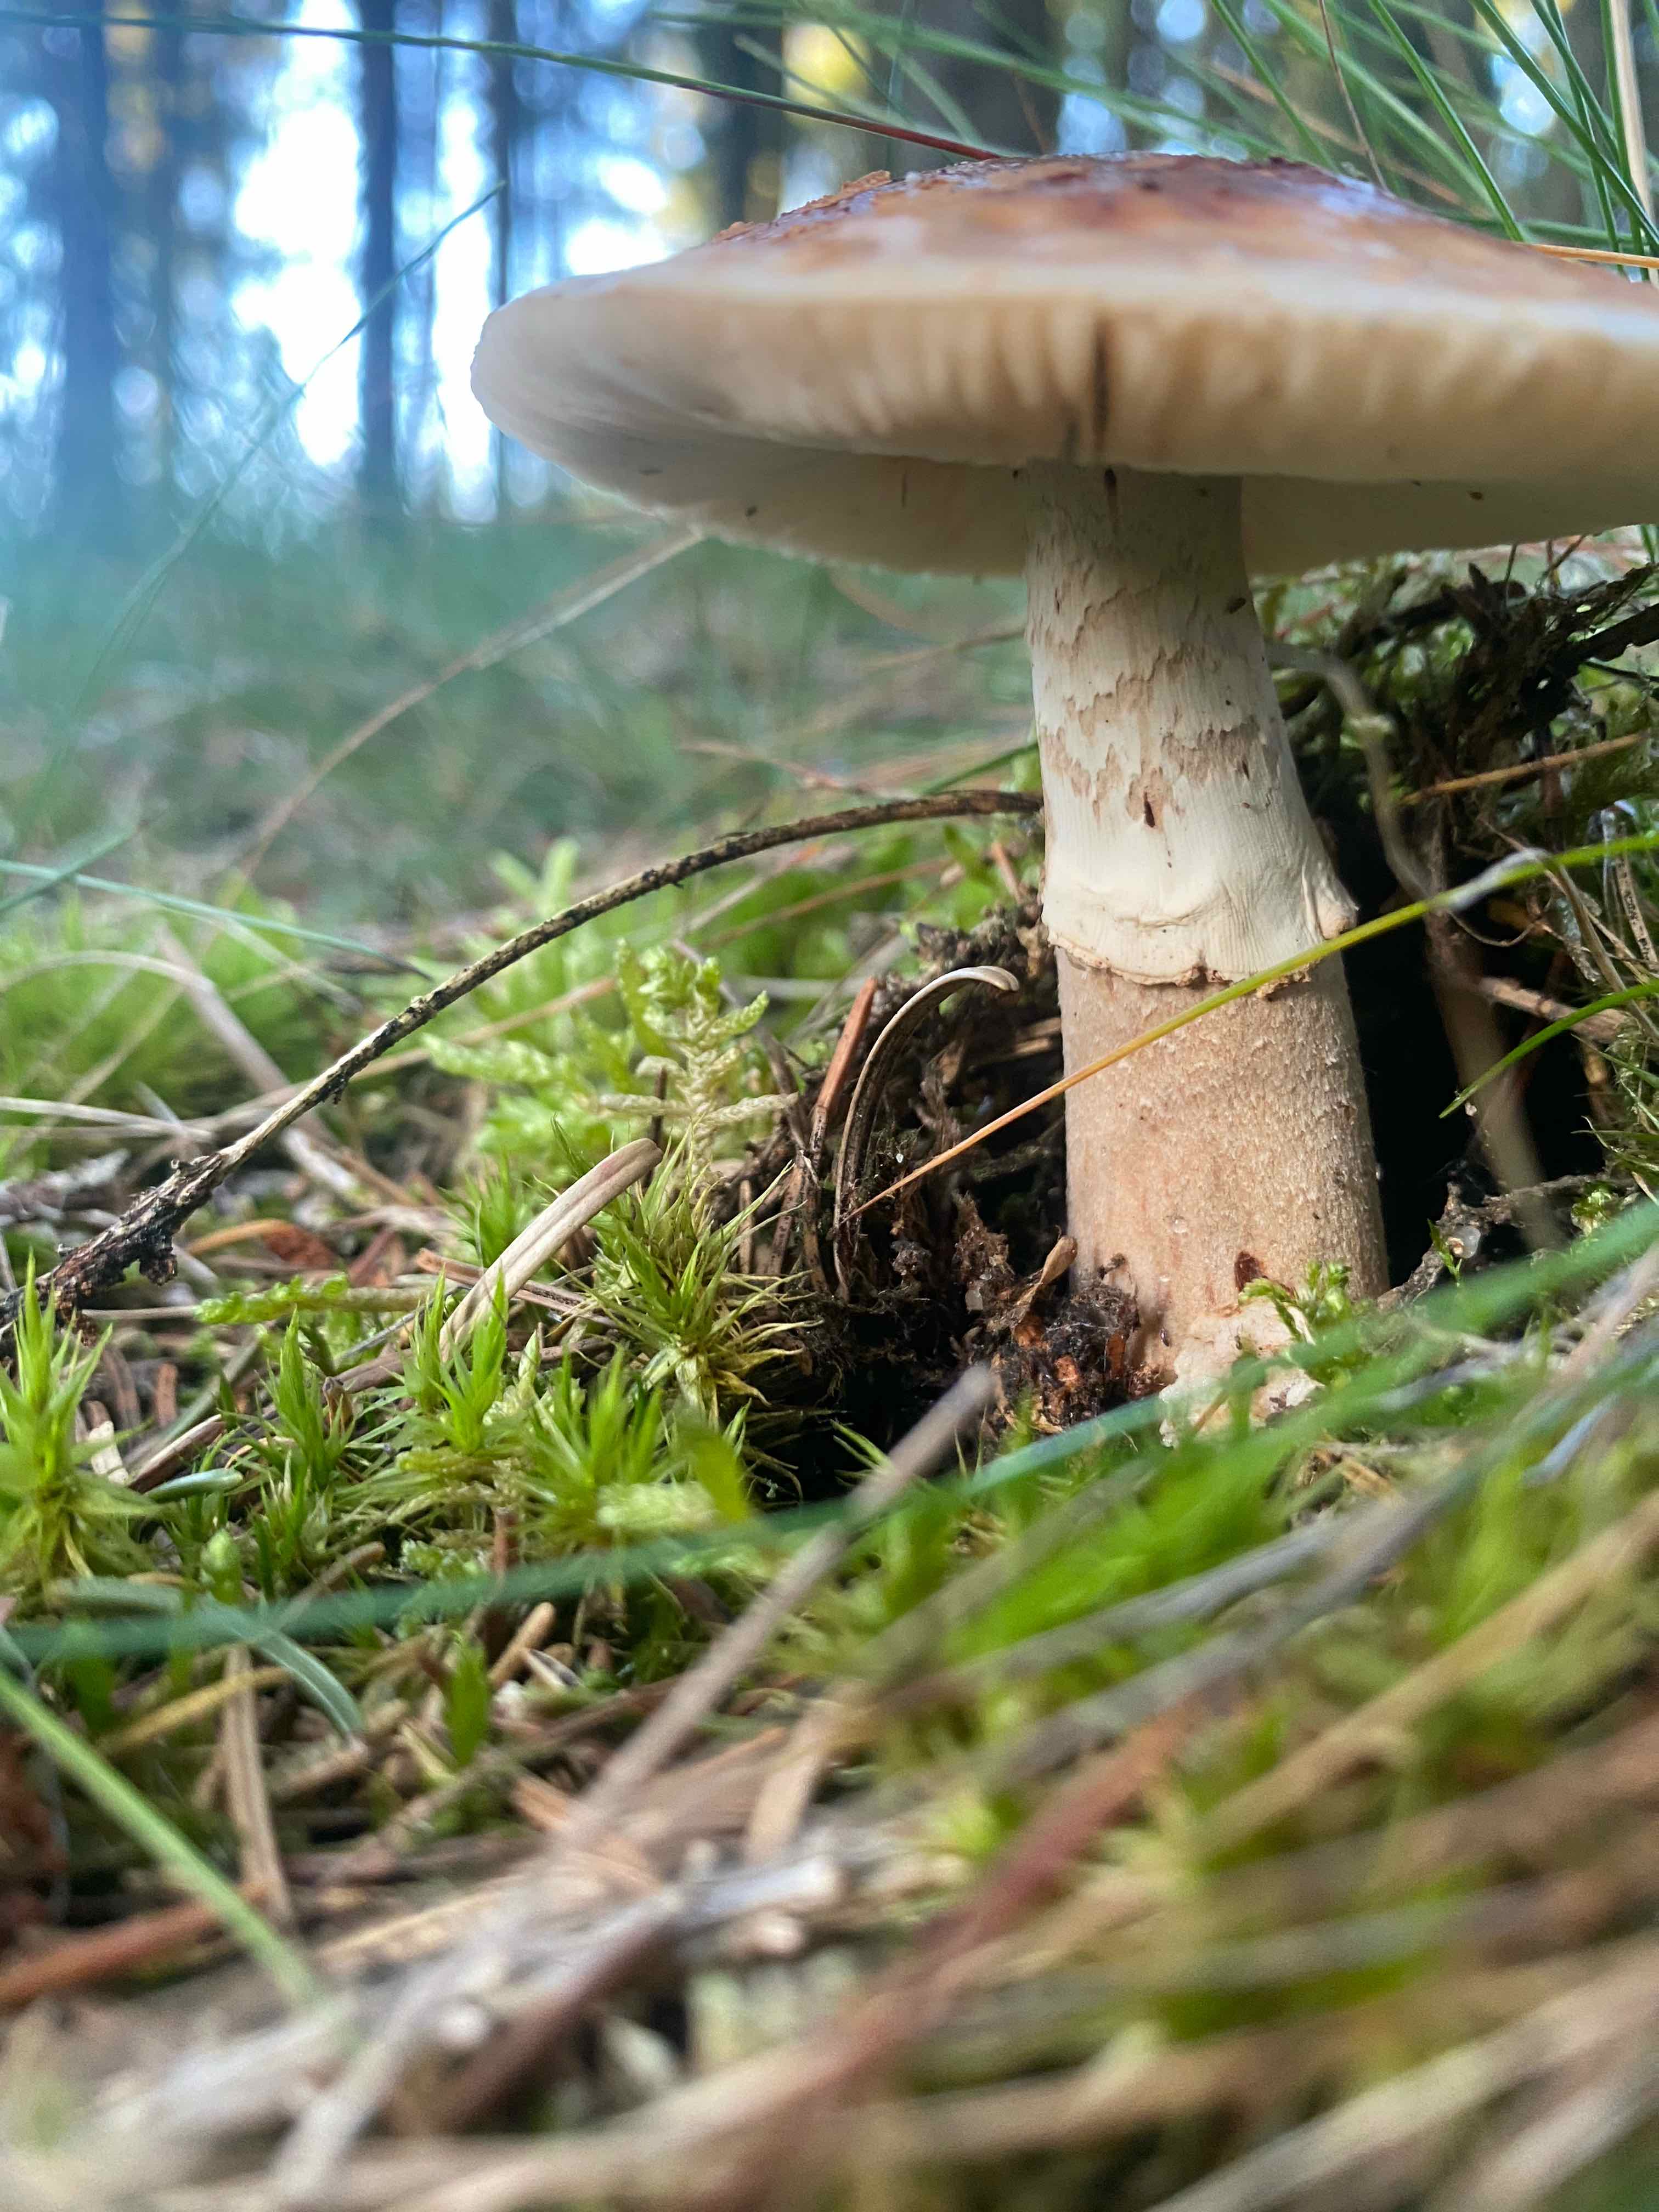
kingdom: Fungi
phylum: Basidiomycota
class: Agaricomycetes
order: Agaricales
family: Amanitaceae
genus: Amanita
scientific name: Amanita rubescens
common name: rødmende fluesvamp
